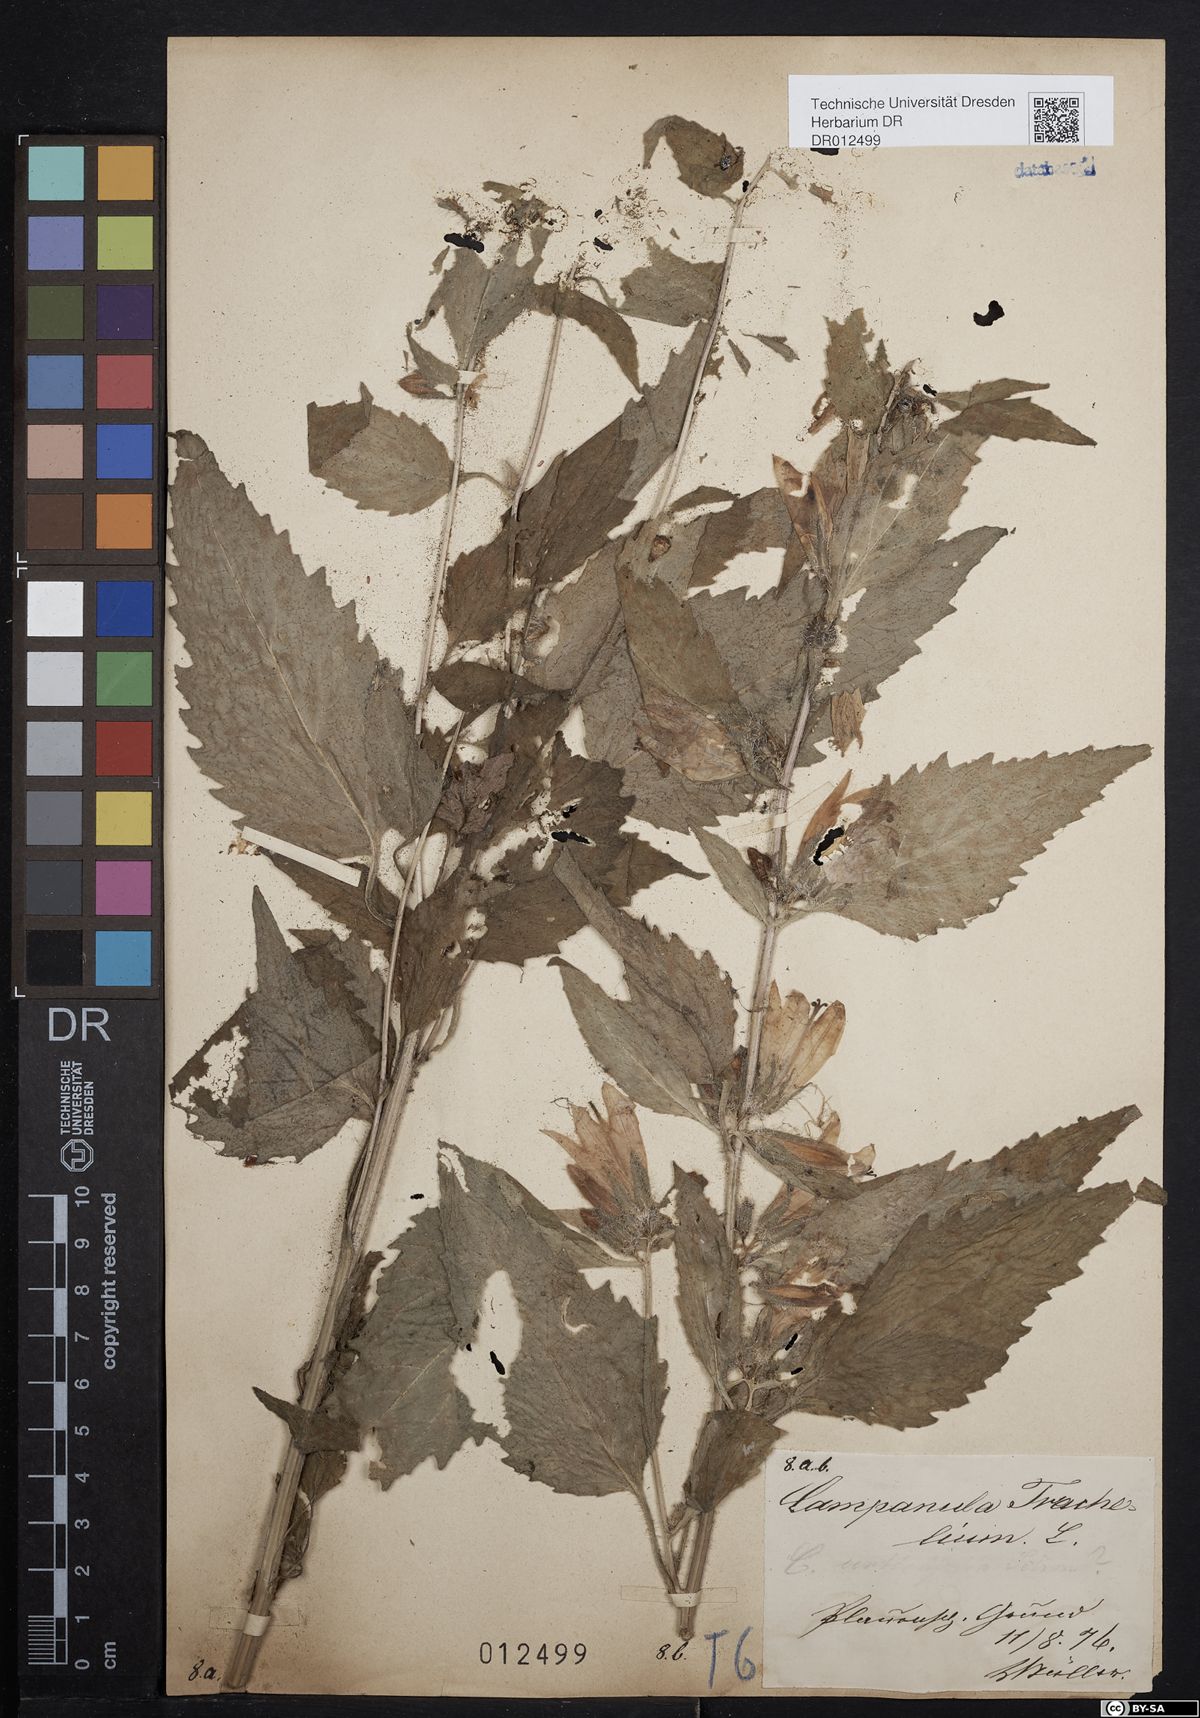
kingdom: Plantae
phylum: Tracheophyta
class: Magnoliopsida
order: Asterales
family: Campanulaceae
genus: Campanula
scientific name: Campanula trachelium
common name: Nettle-leaved bellflower
